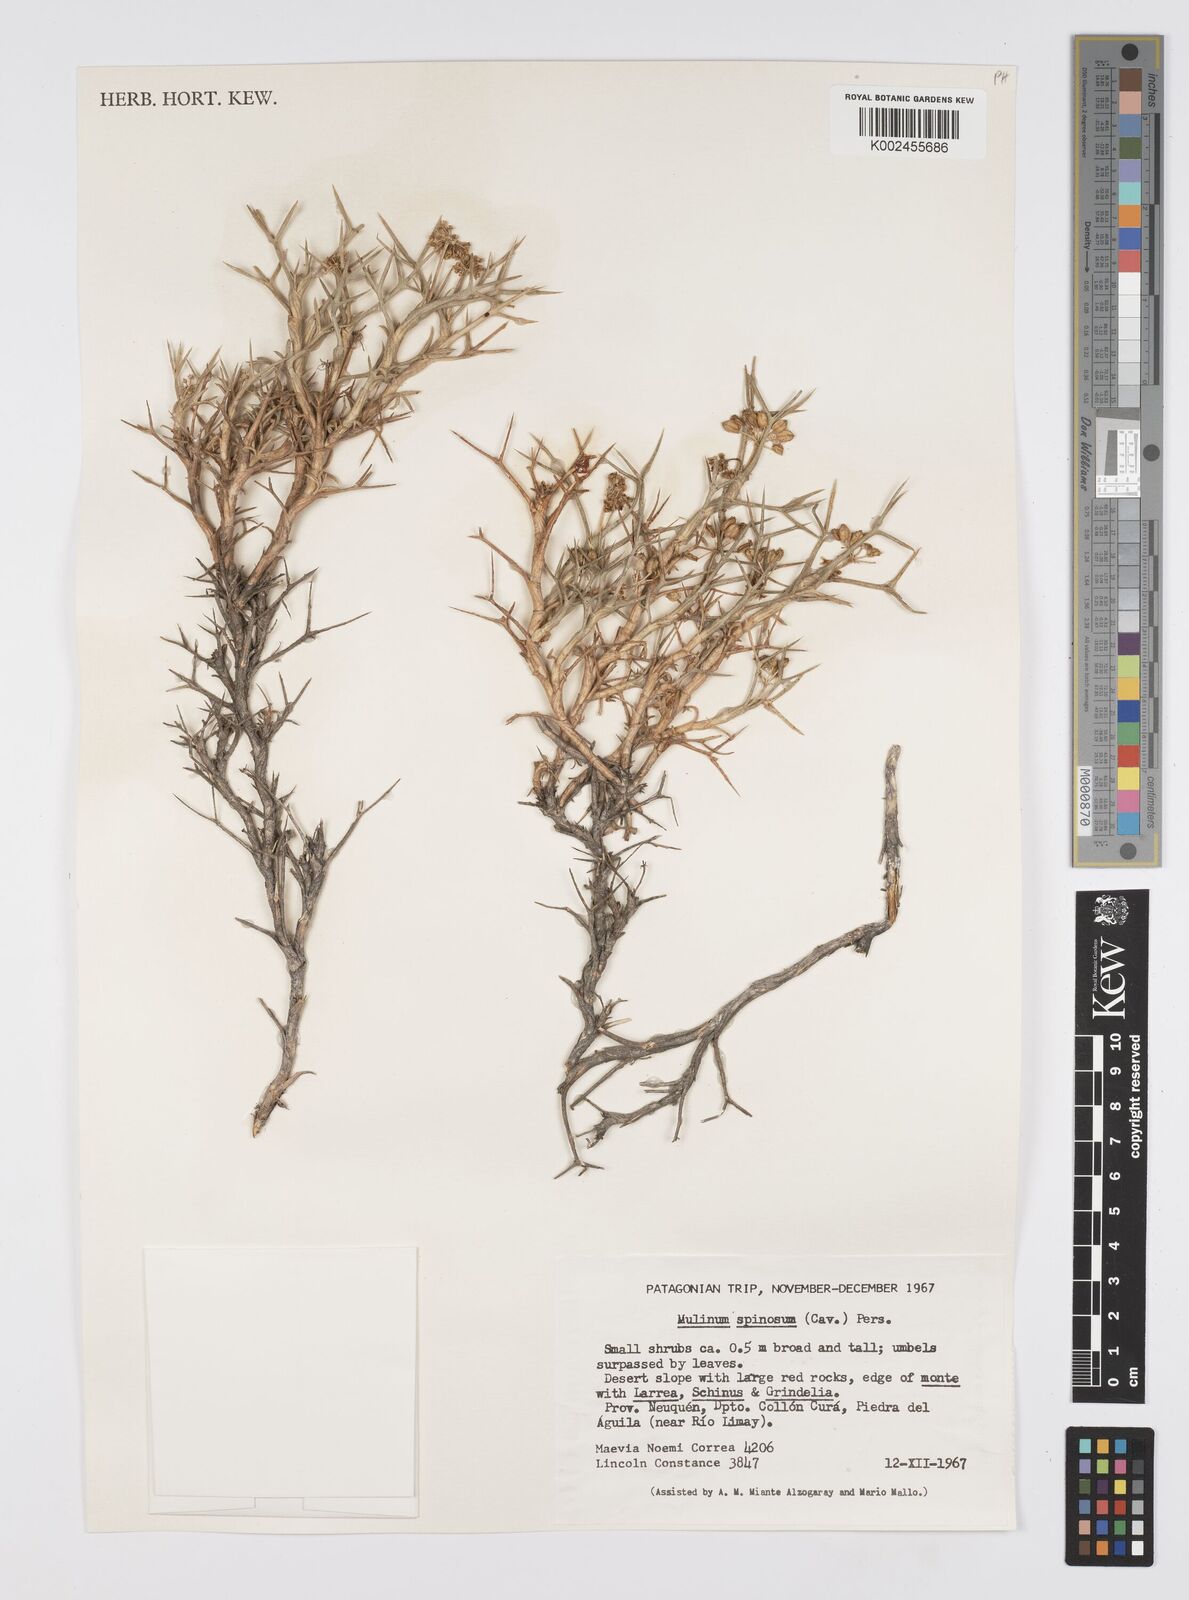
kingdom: Plantae
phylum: Tracheophyta
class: Magnoliopsida
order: Apiales
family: Apiaceae
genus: Azorella
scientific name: Azorella prolifera
